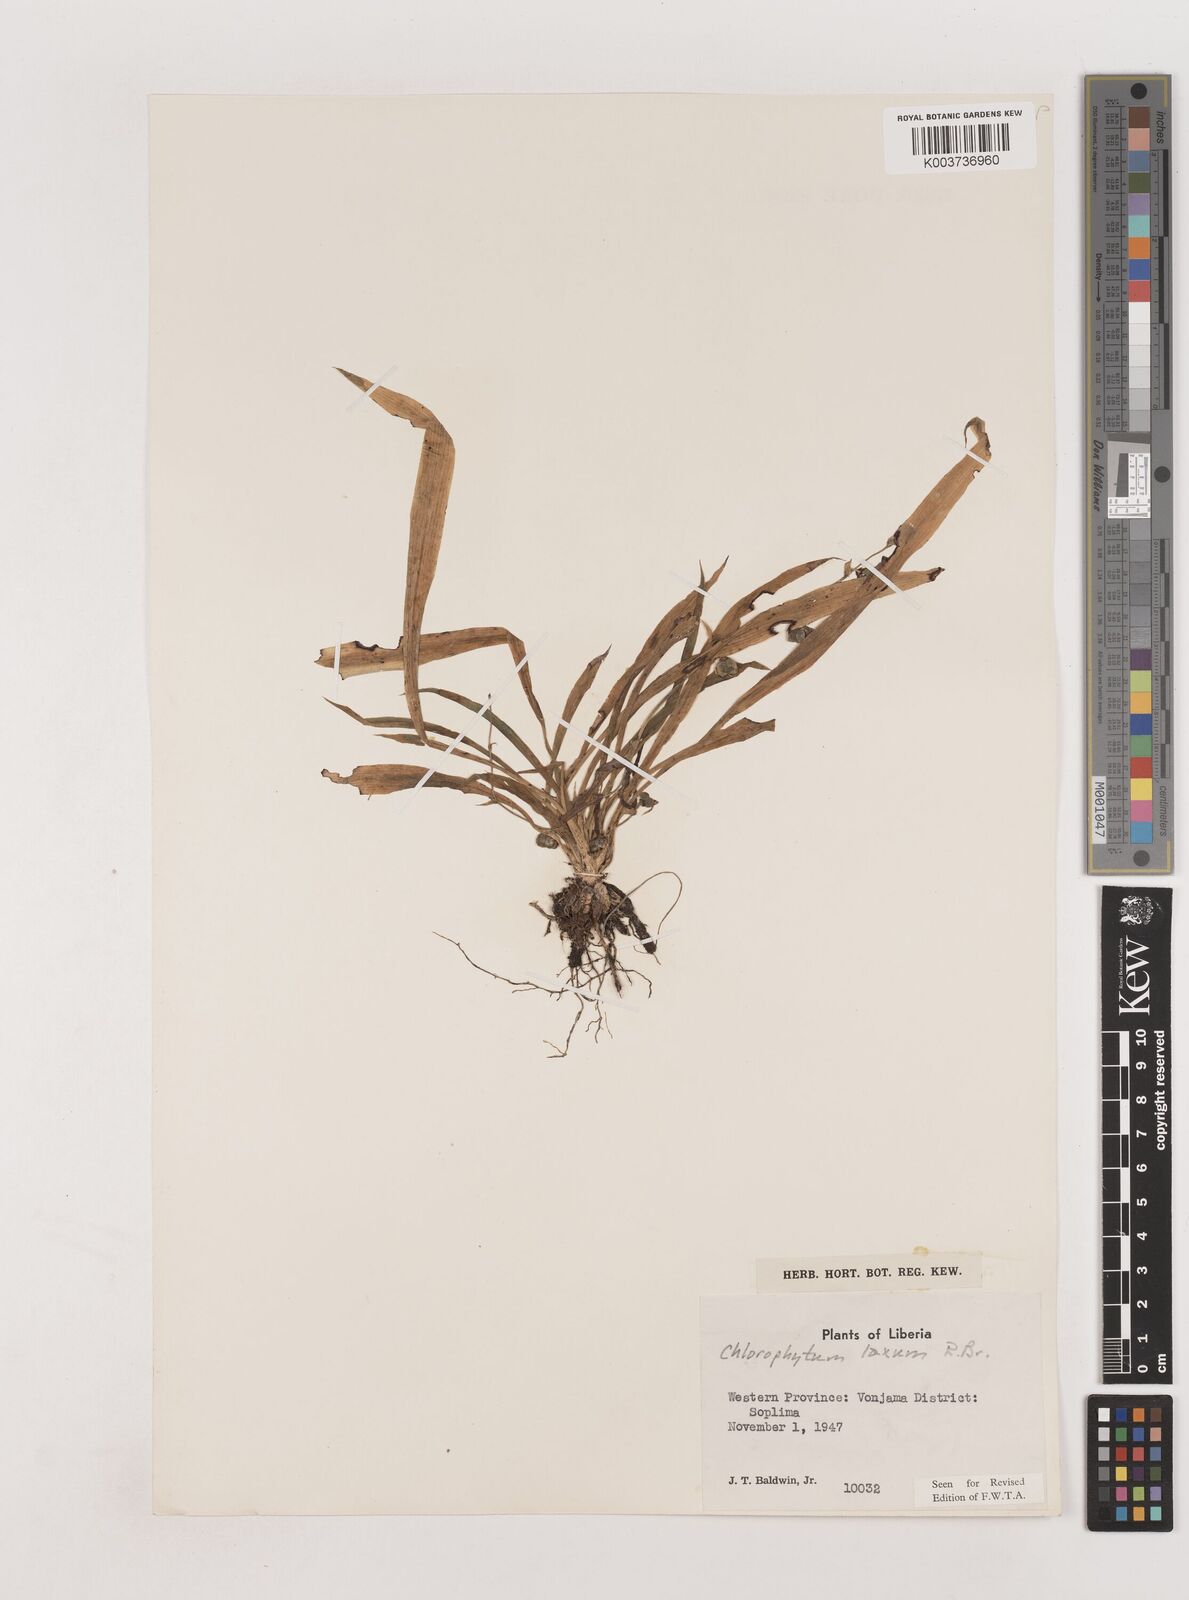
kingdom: Plantae
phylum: Tracheophyta
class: Liliopsida
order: Asparagales
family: Asparagaceae
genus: Chlorophytum
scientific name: Chlorophytum laxum
